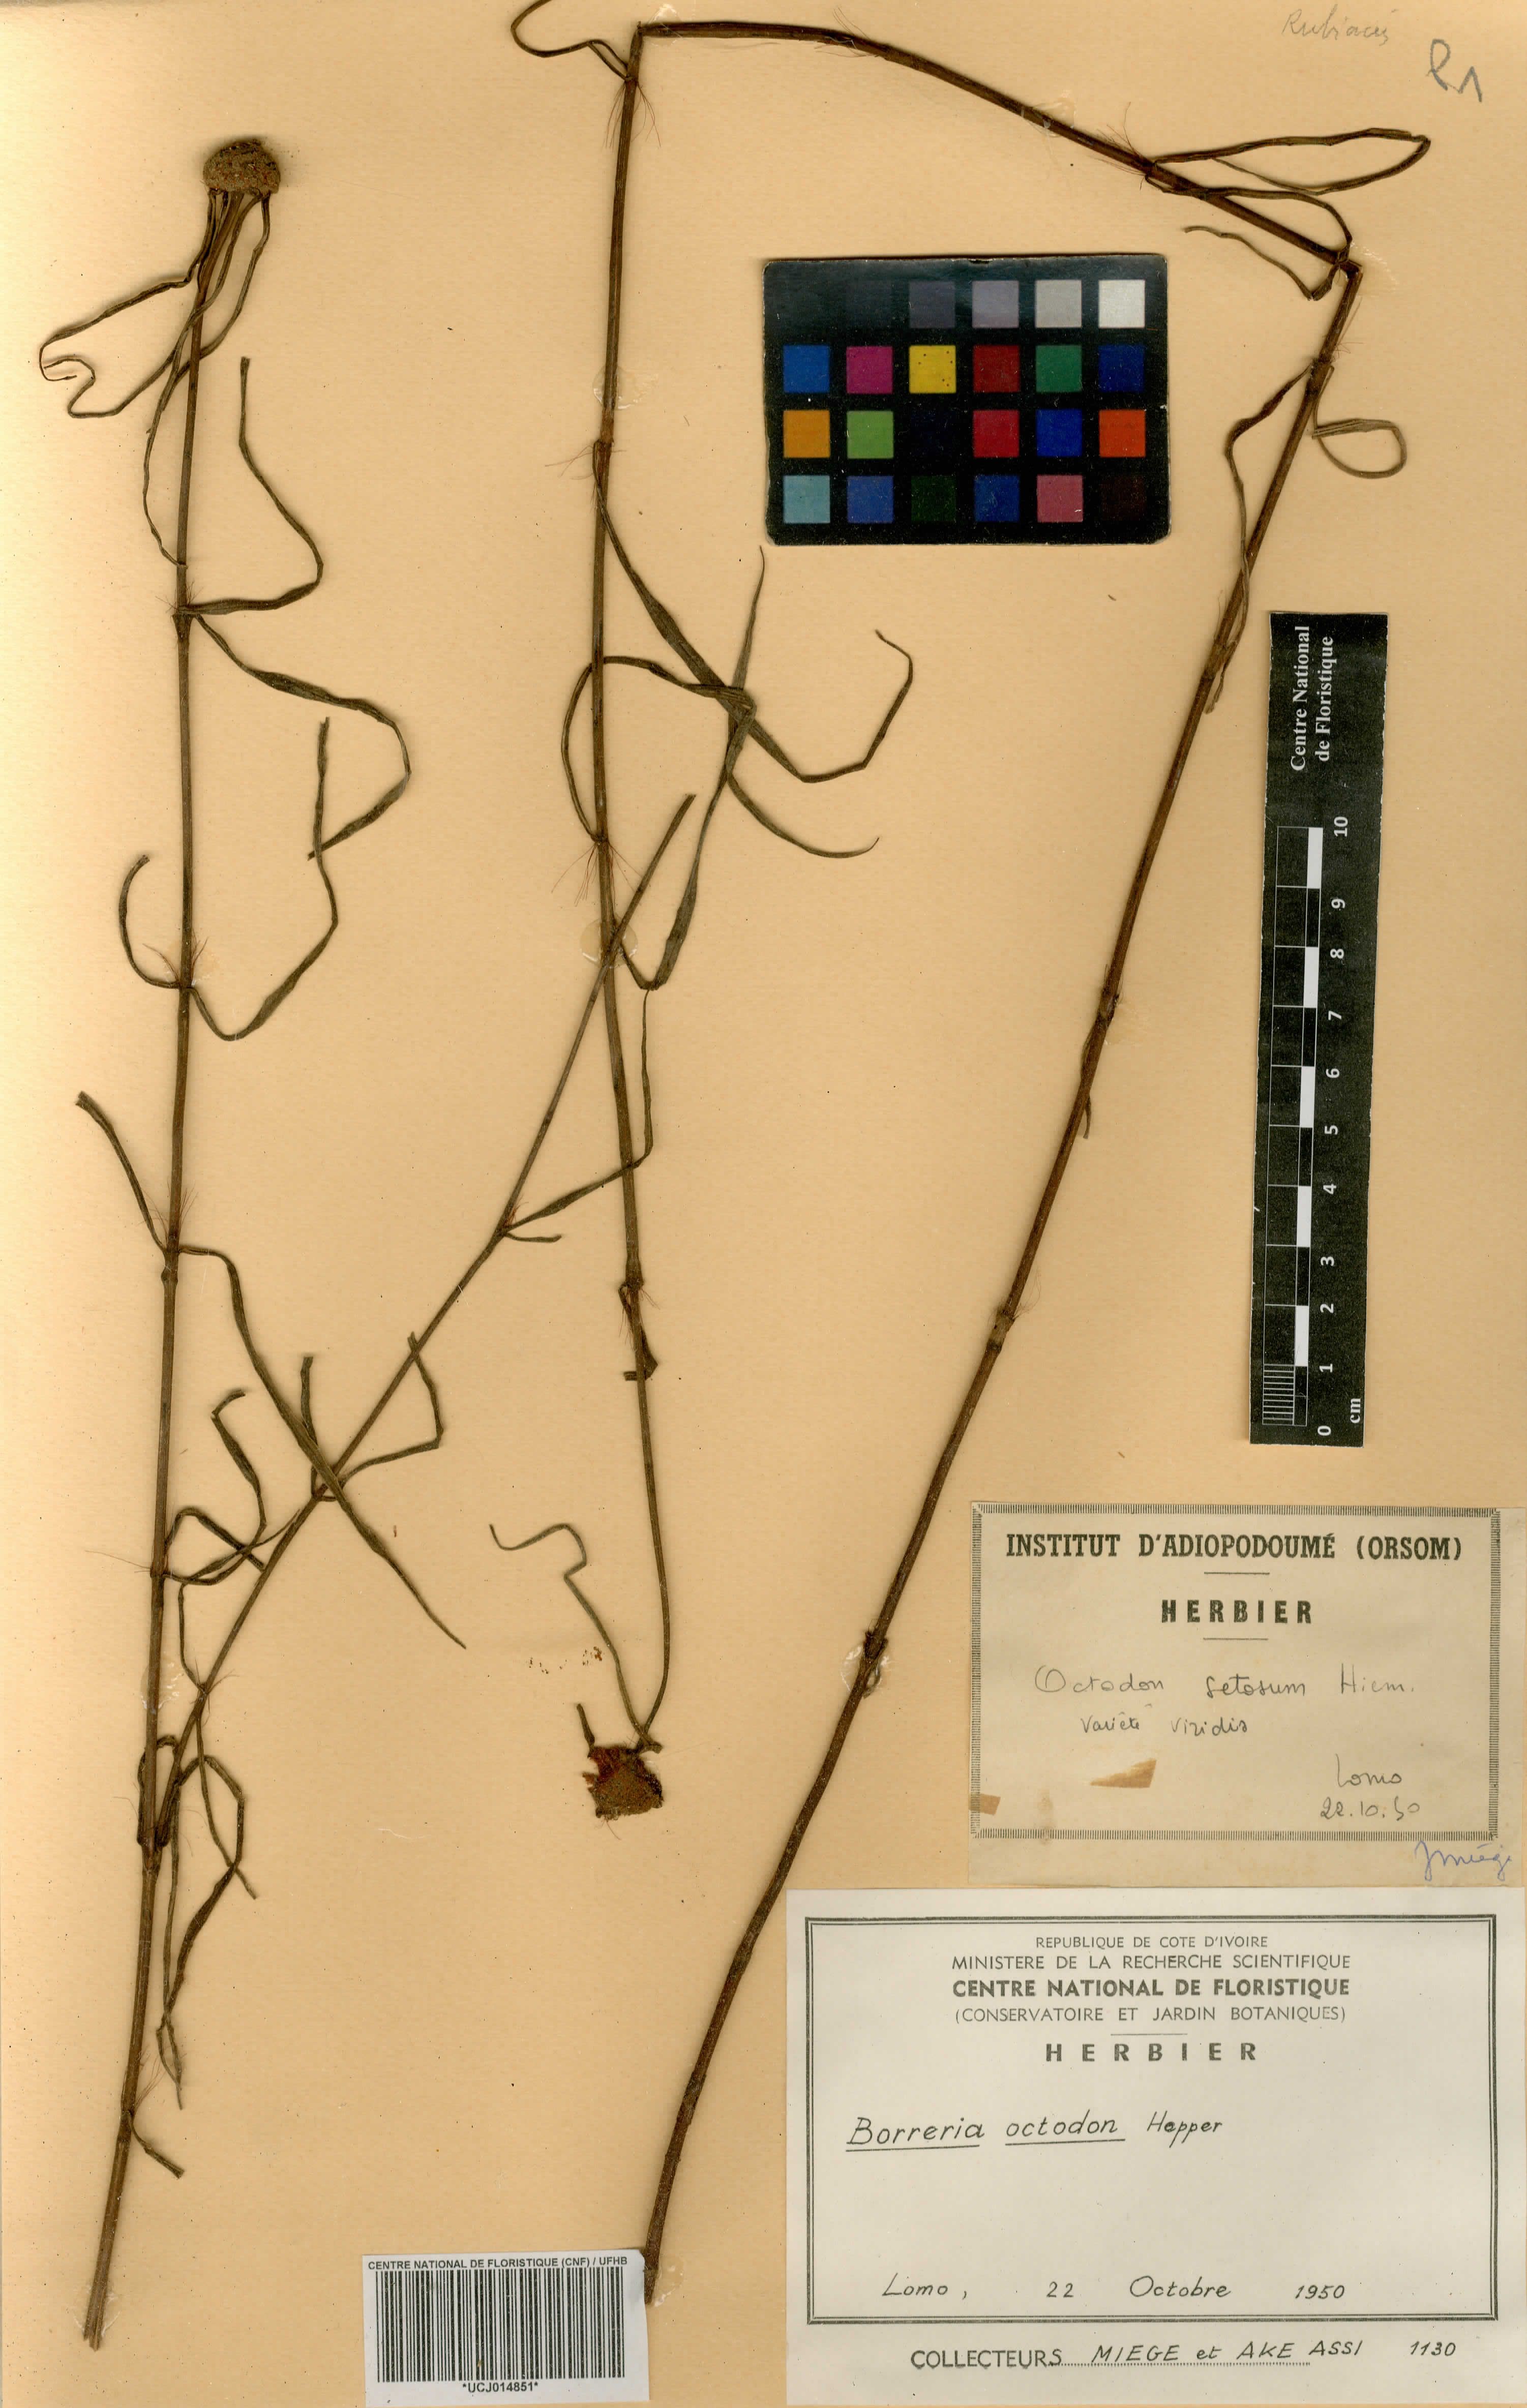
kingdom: Plantae
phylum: Tracheophyta
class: Magnoliopsida
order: Gentianales
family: Rubiaceae
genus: Spermacoce
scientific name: Spermacoce octodon
